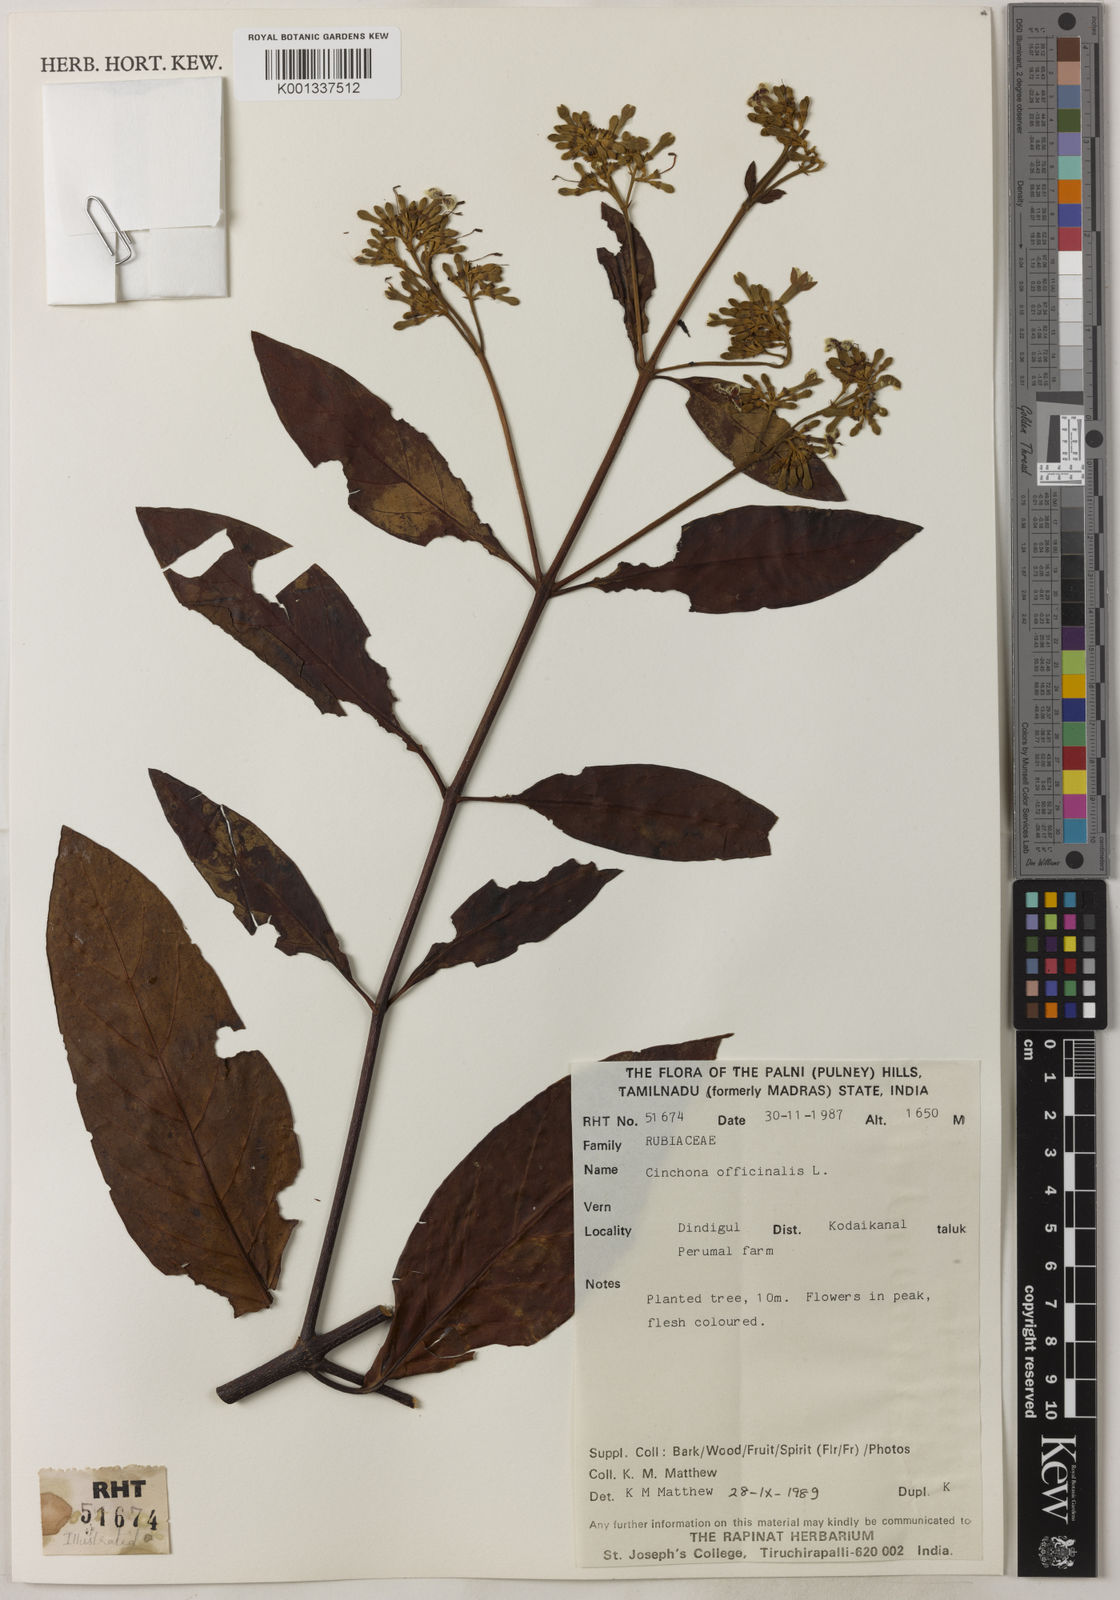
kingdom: Plantae
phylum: Tracheophyta
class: Magnoliopsida
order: Gentianales
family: Rubiaceae
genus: Cinchona
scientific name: Cinchona officinalis
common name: Lojabark
